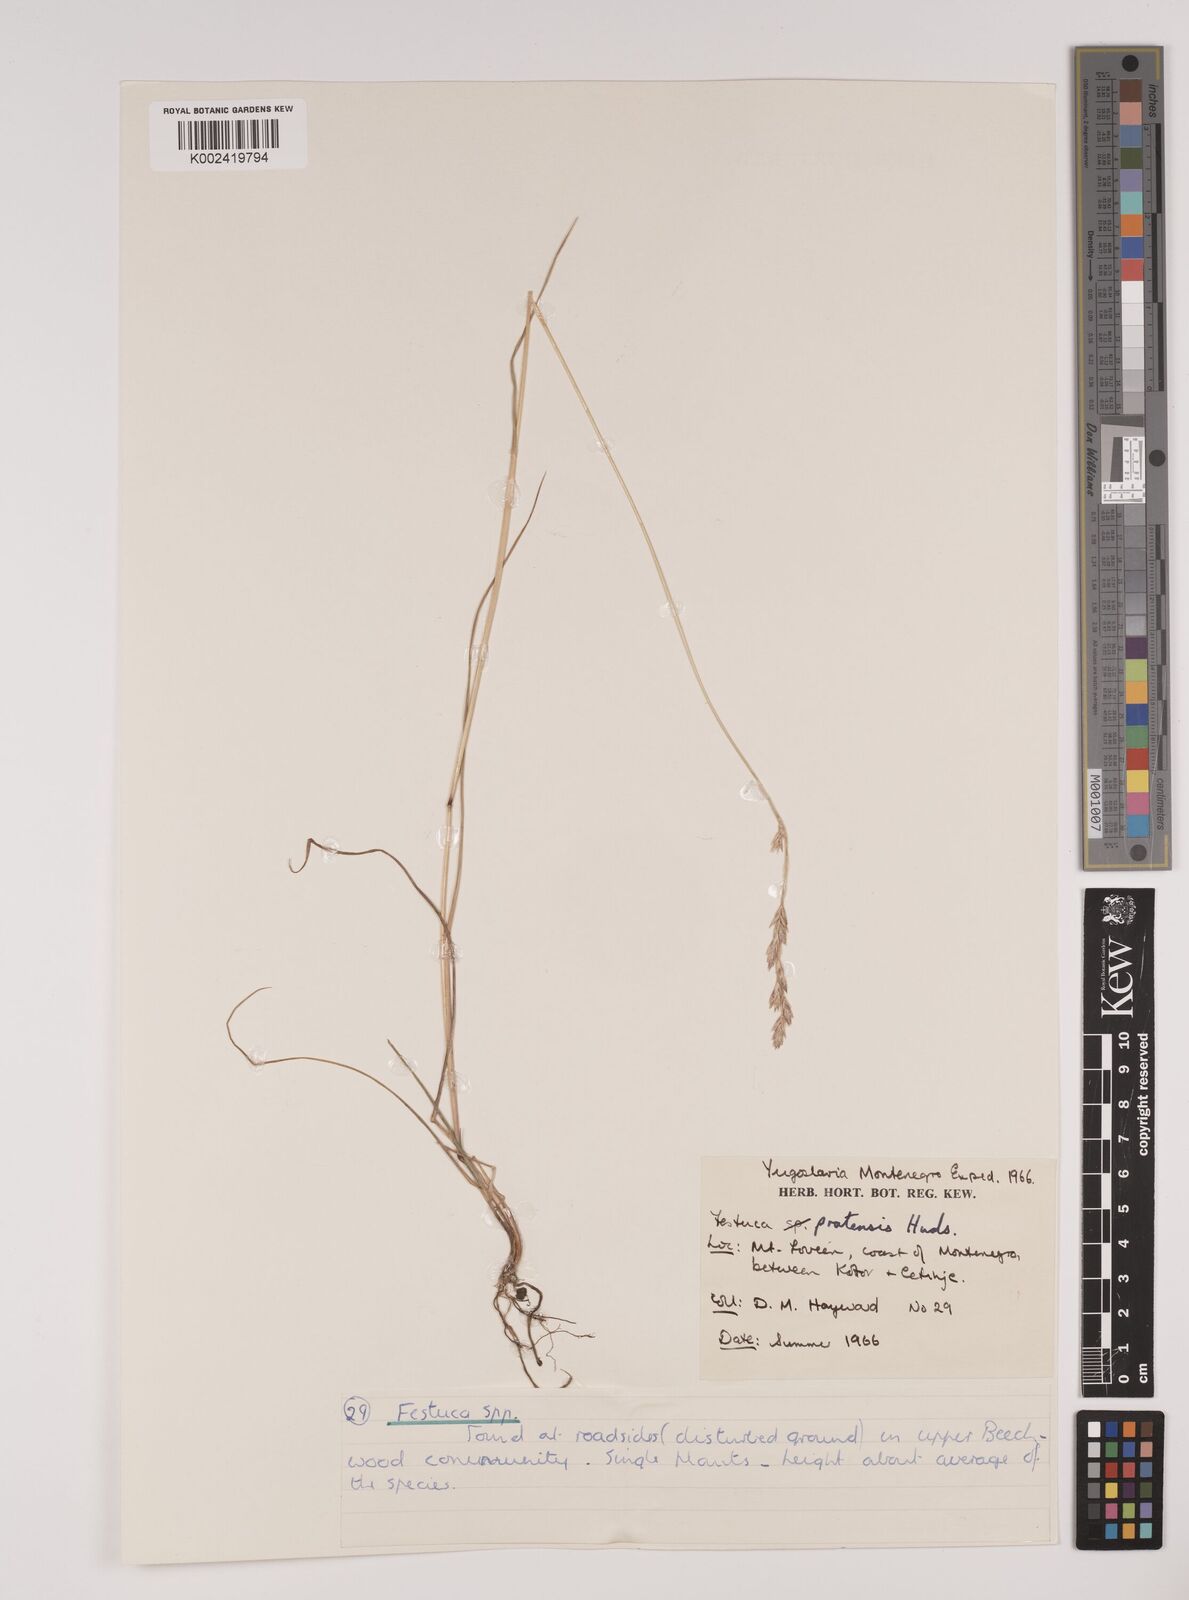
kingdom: Plantae
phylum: Tracheophyta
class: Liliopsida
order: Poales
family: Poaceae
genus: Festuca
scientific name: Festuca
